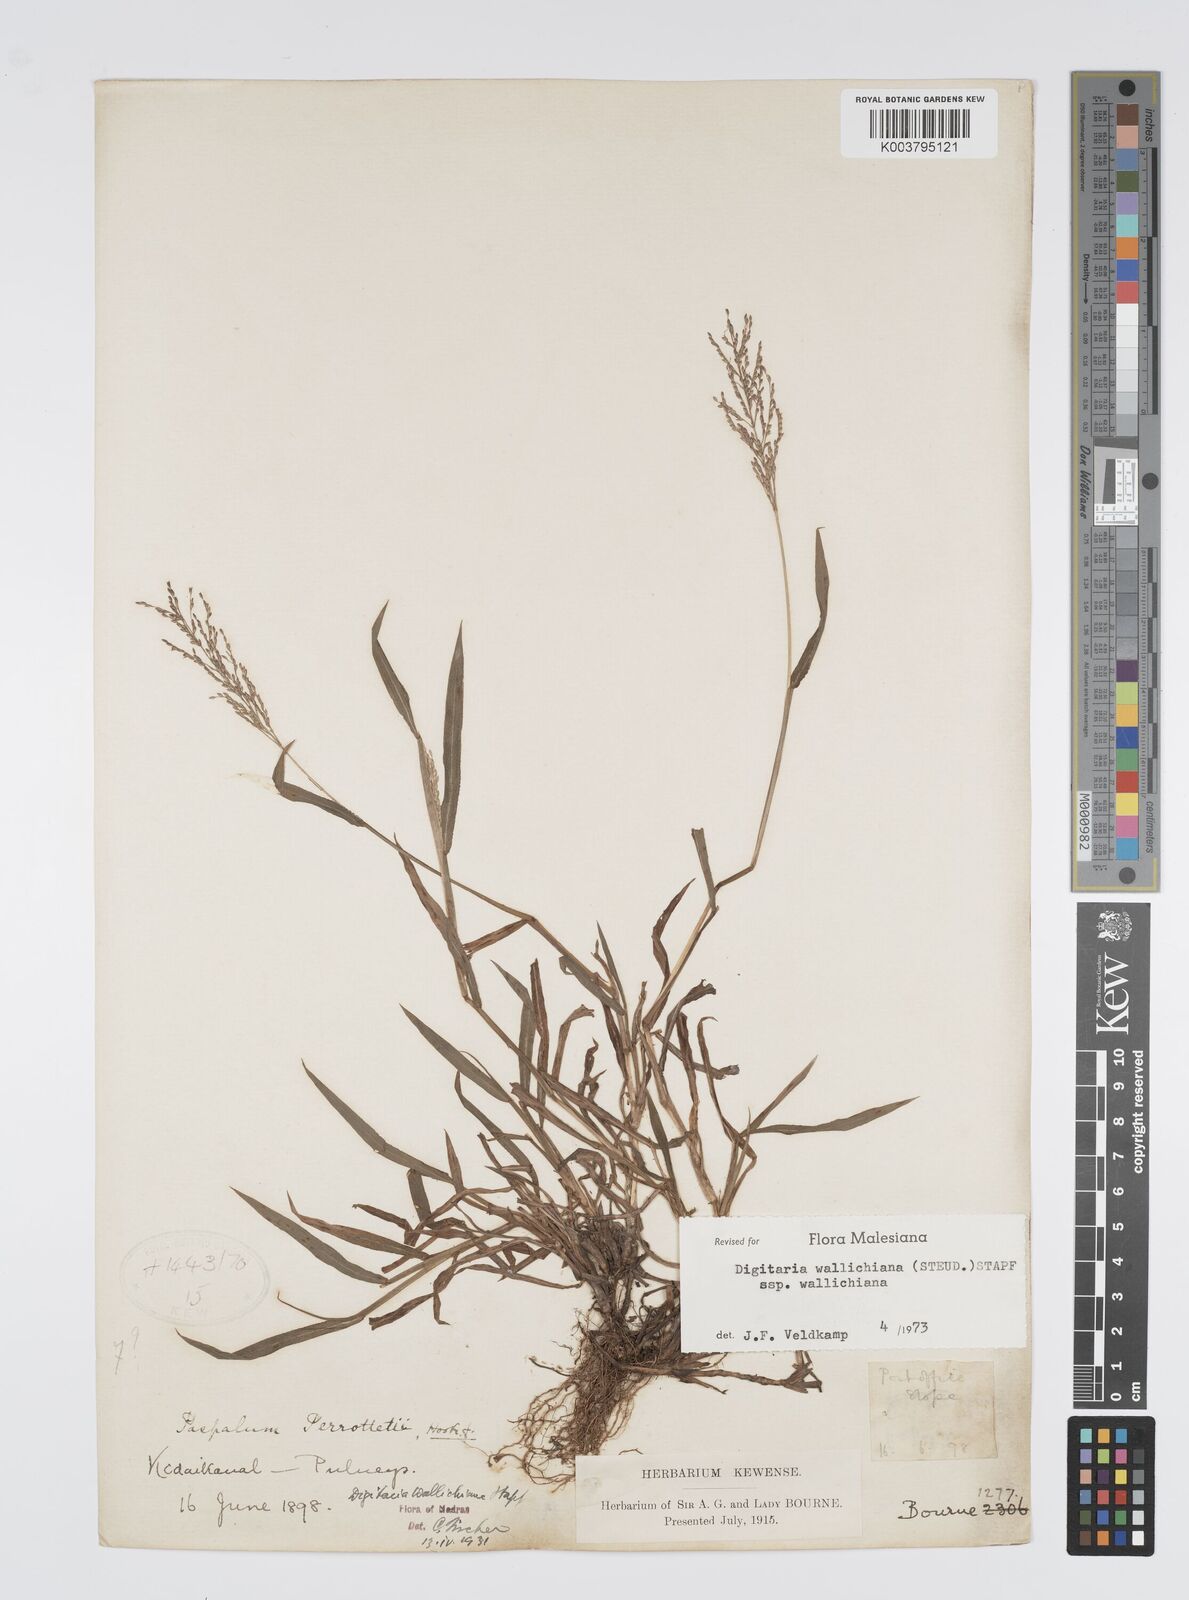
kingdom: Plantae
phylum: Tracheophyta
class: Liliopsida
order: Poales
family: Poaceae
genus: Digitaria
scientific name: Digitaria wallichiana
